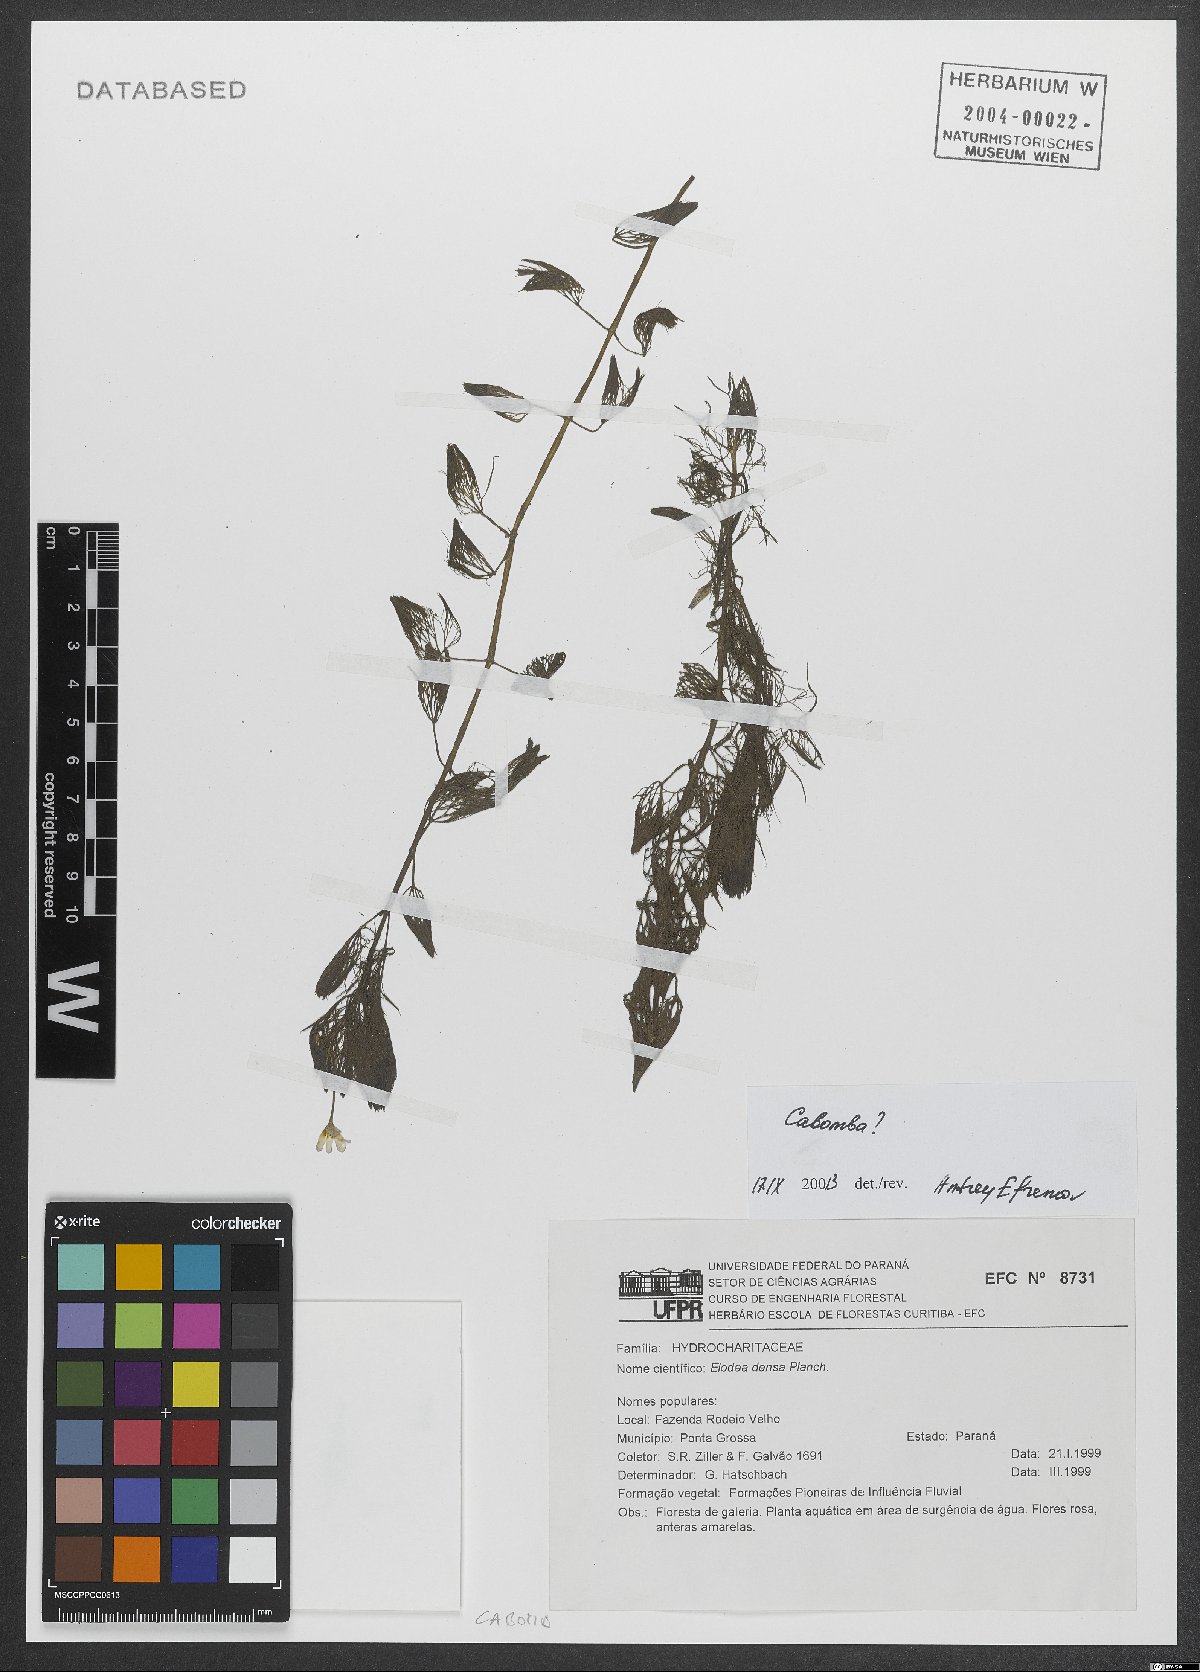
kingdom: Plantae
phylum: Tracheophyta
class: Magnoliopsida
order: Nymphaeales
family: Cabombaceae
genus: Cabomba
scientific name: Cabomba
